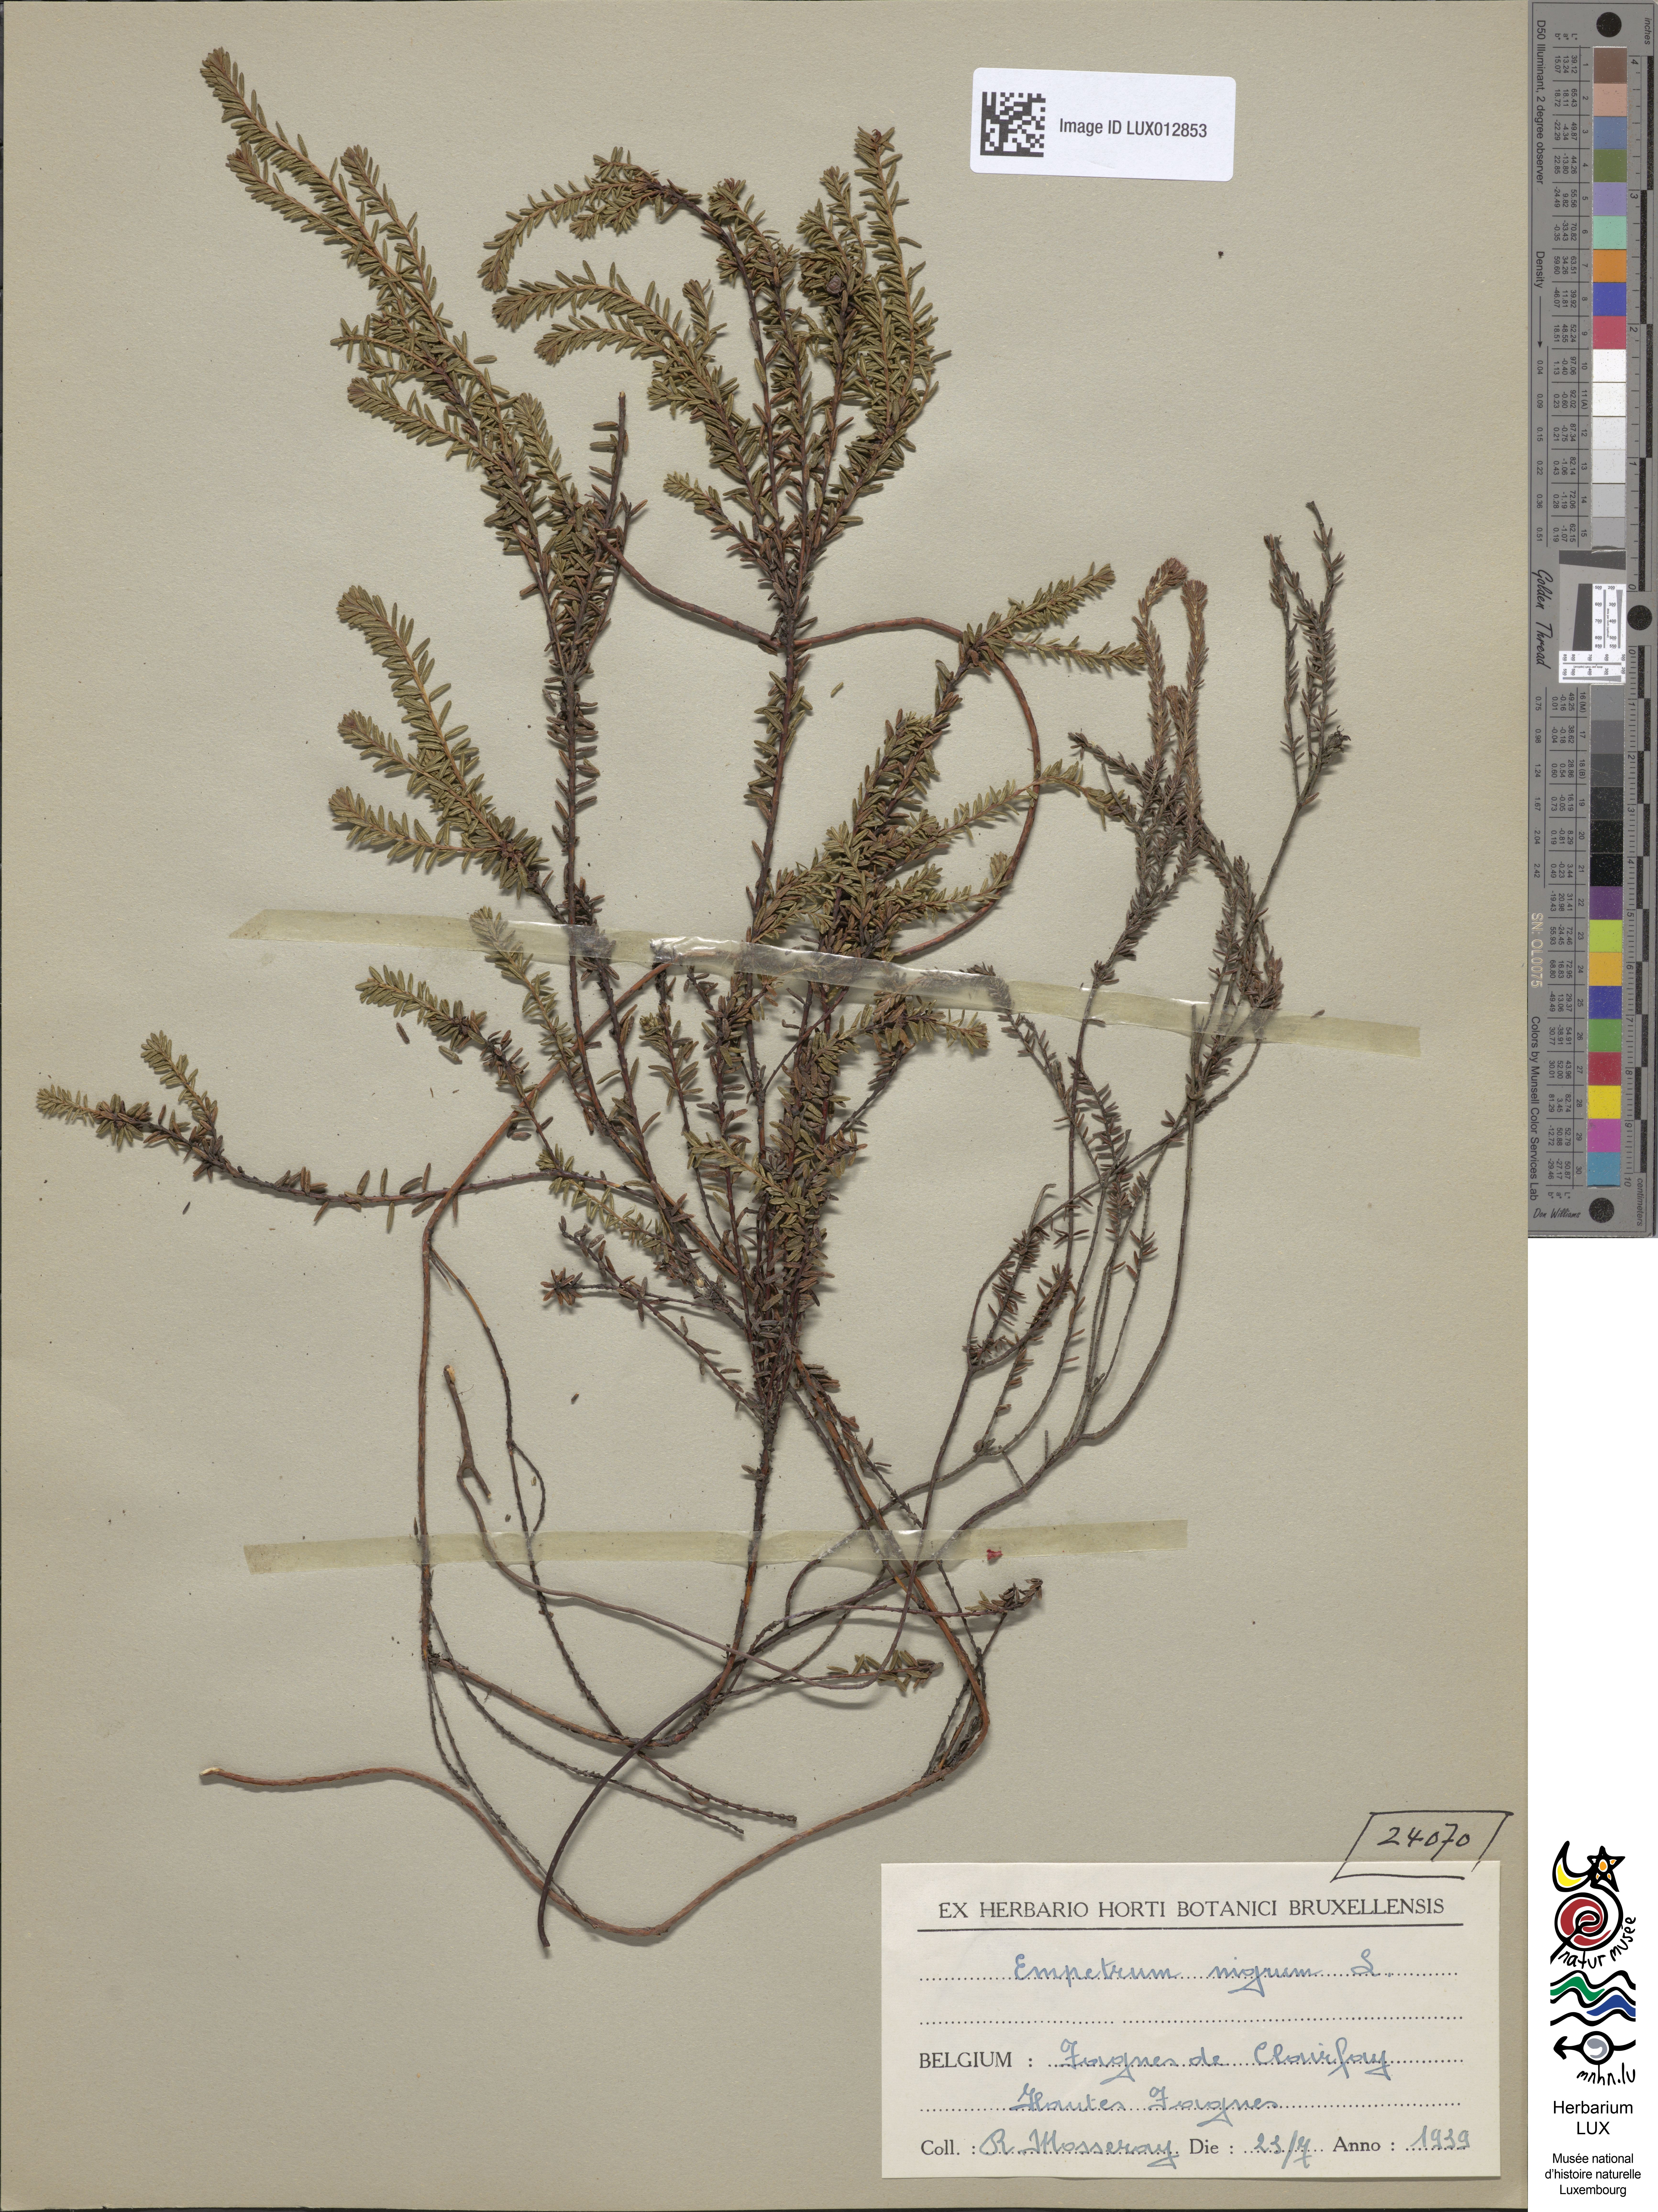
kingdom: Plantae
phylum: Tracheophyta
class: Magnoliopsida
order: Ericales
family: Ericaceae
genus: Empetrum
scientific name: Empetrum nigrum
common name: Black crowberry
